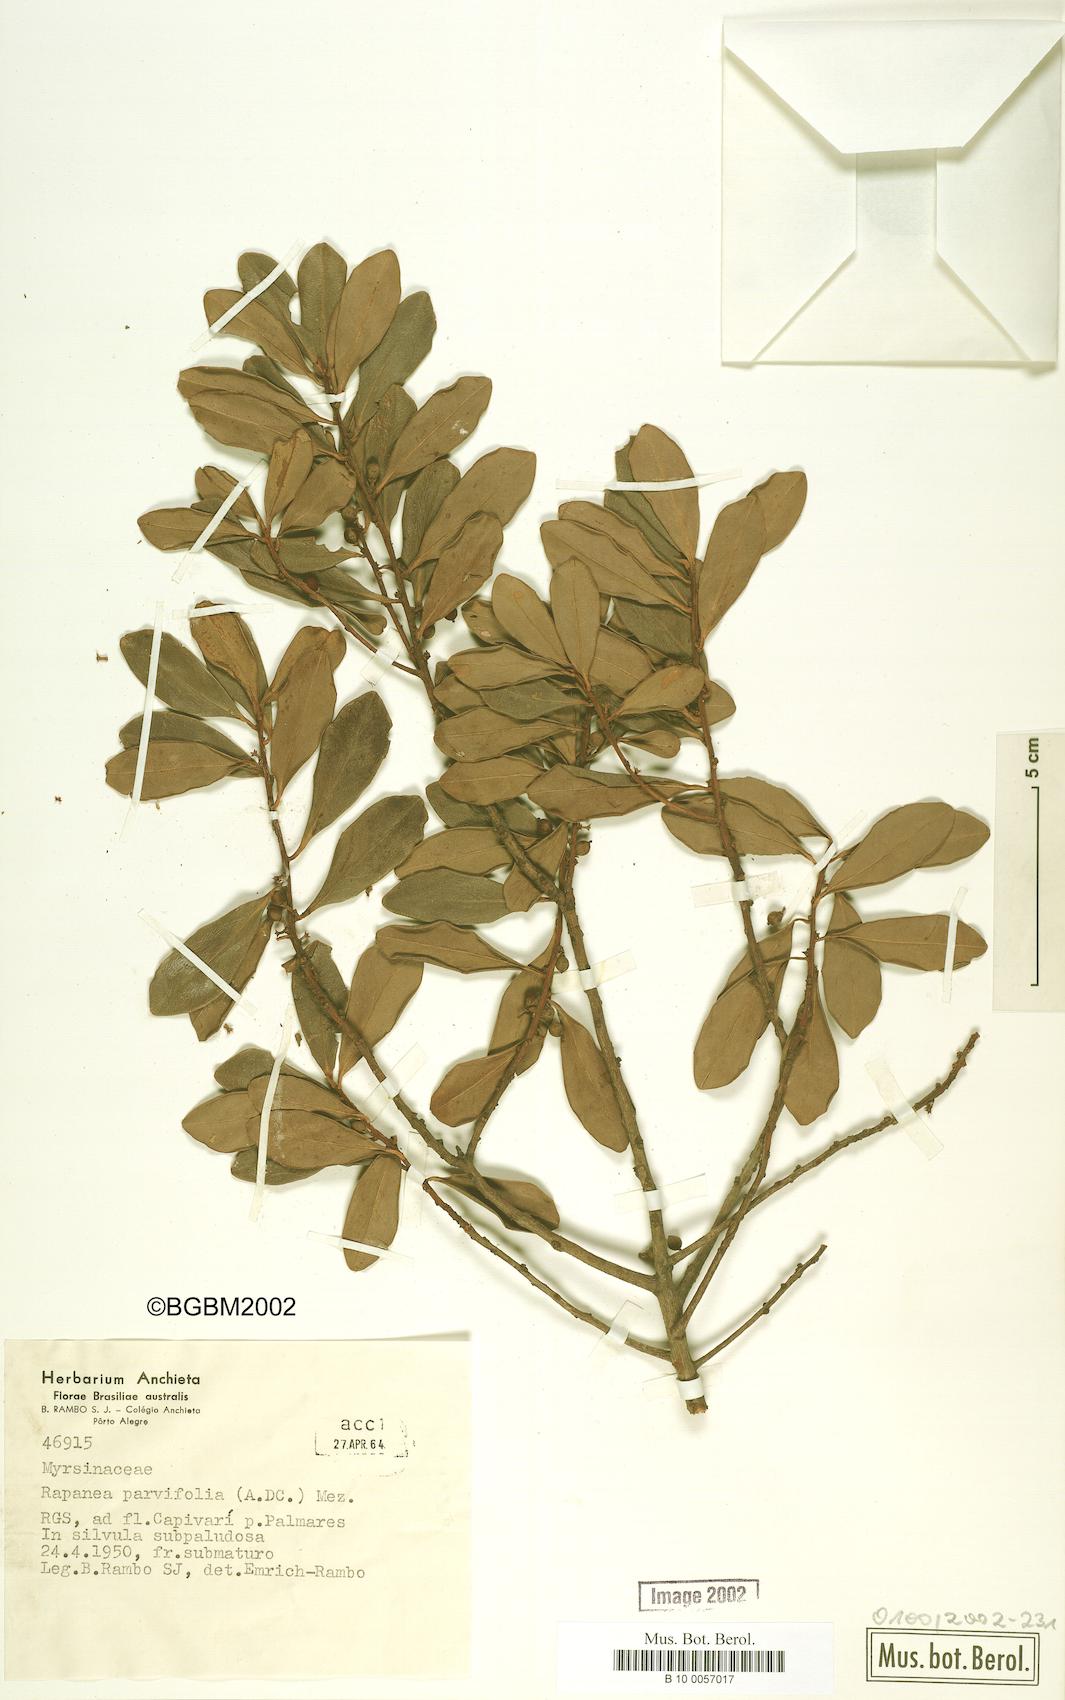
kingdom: Plantae
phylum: Tracheophyta
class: Magnoliopsida
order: Ericales
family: Primulaceae
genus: Myrsine
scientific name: Myrsine parvifolia
